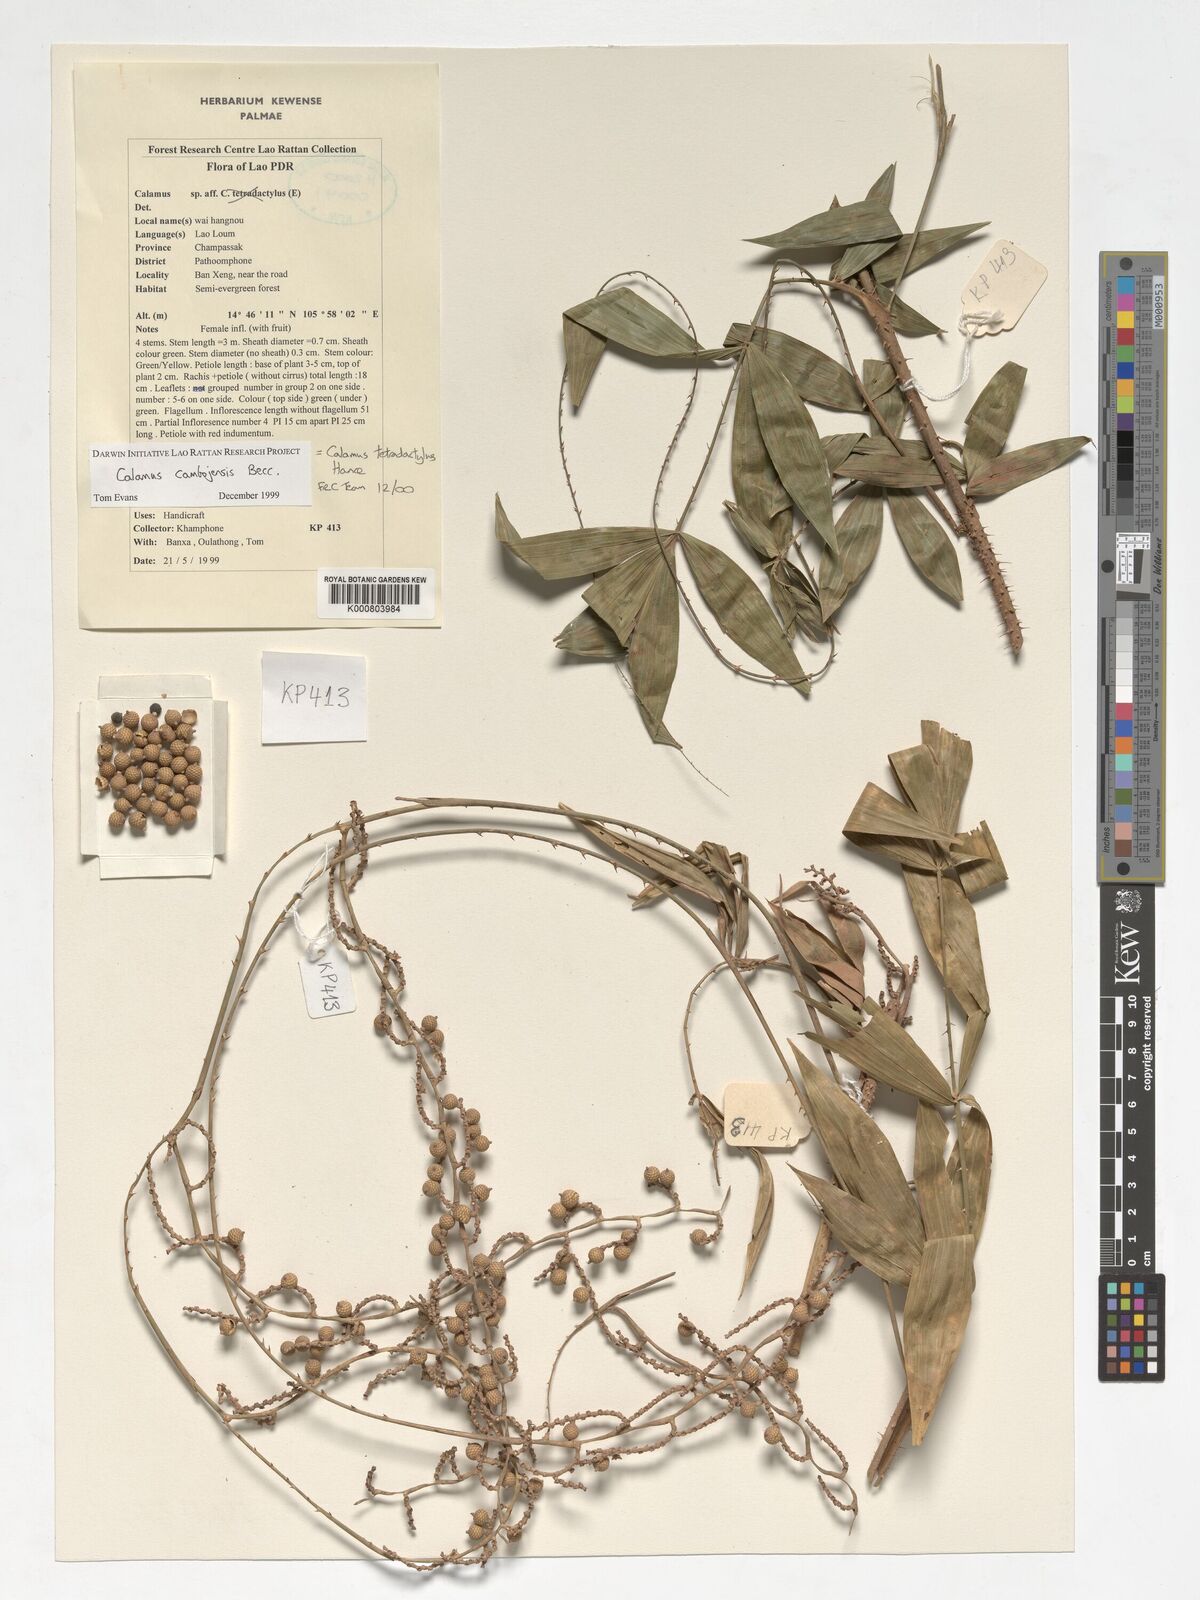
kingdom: Plantae
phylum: Tracheophyta
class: Liliopsida
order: Arecales
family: Arecaceae
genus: Calamus
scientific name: Calamus tetradactylus
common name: White rattan
